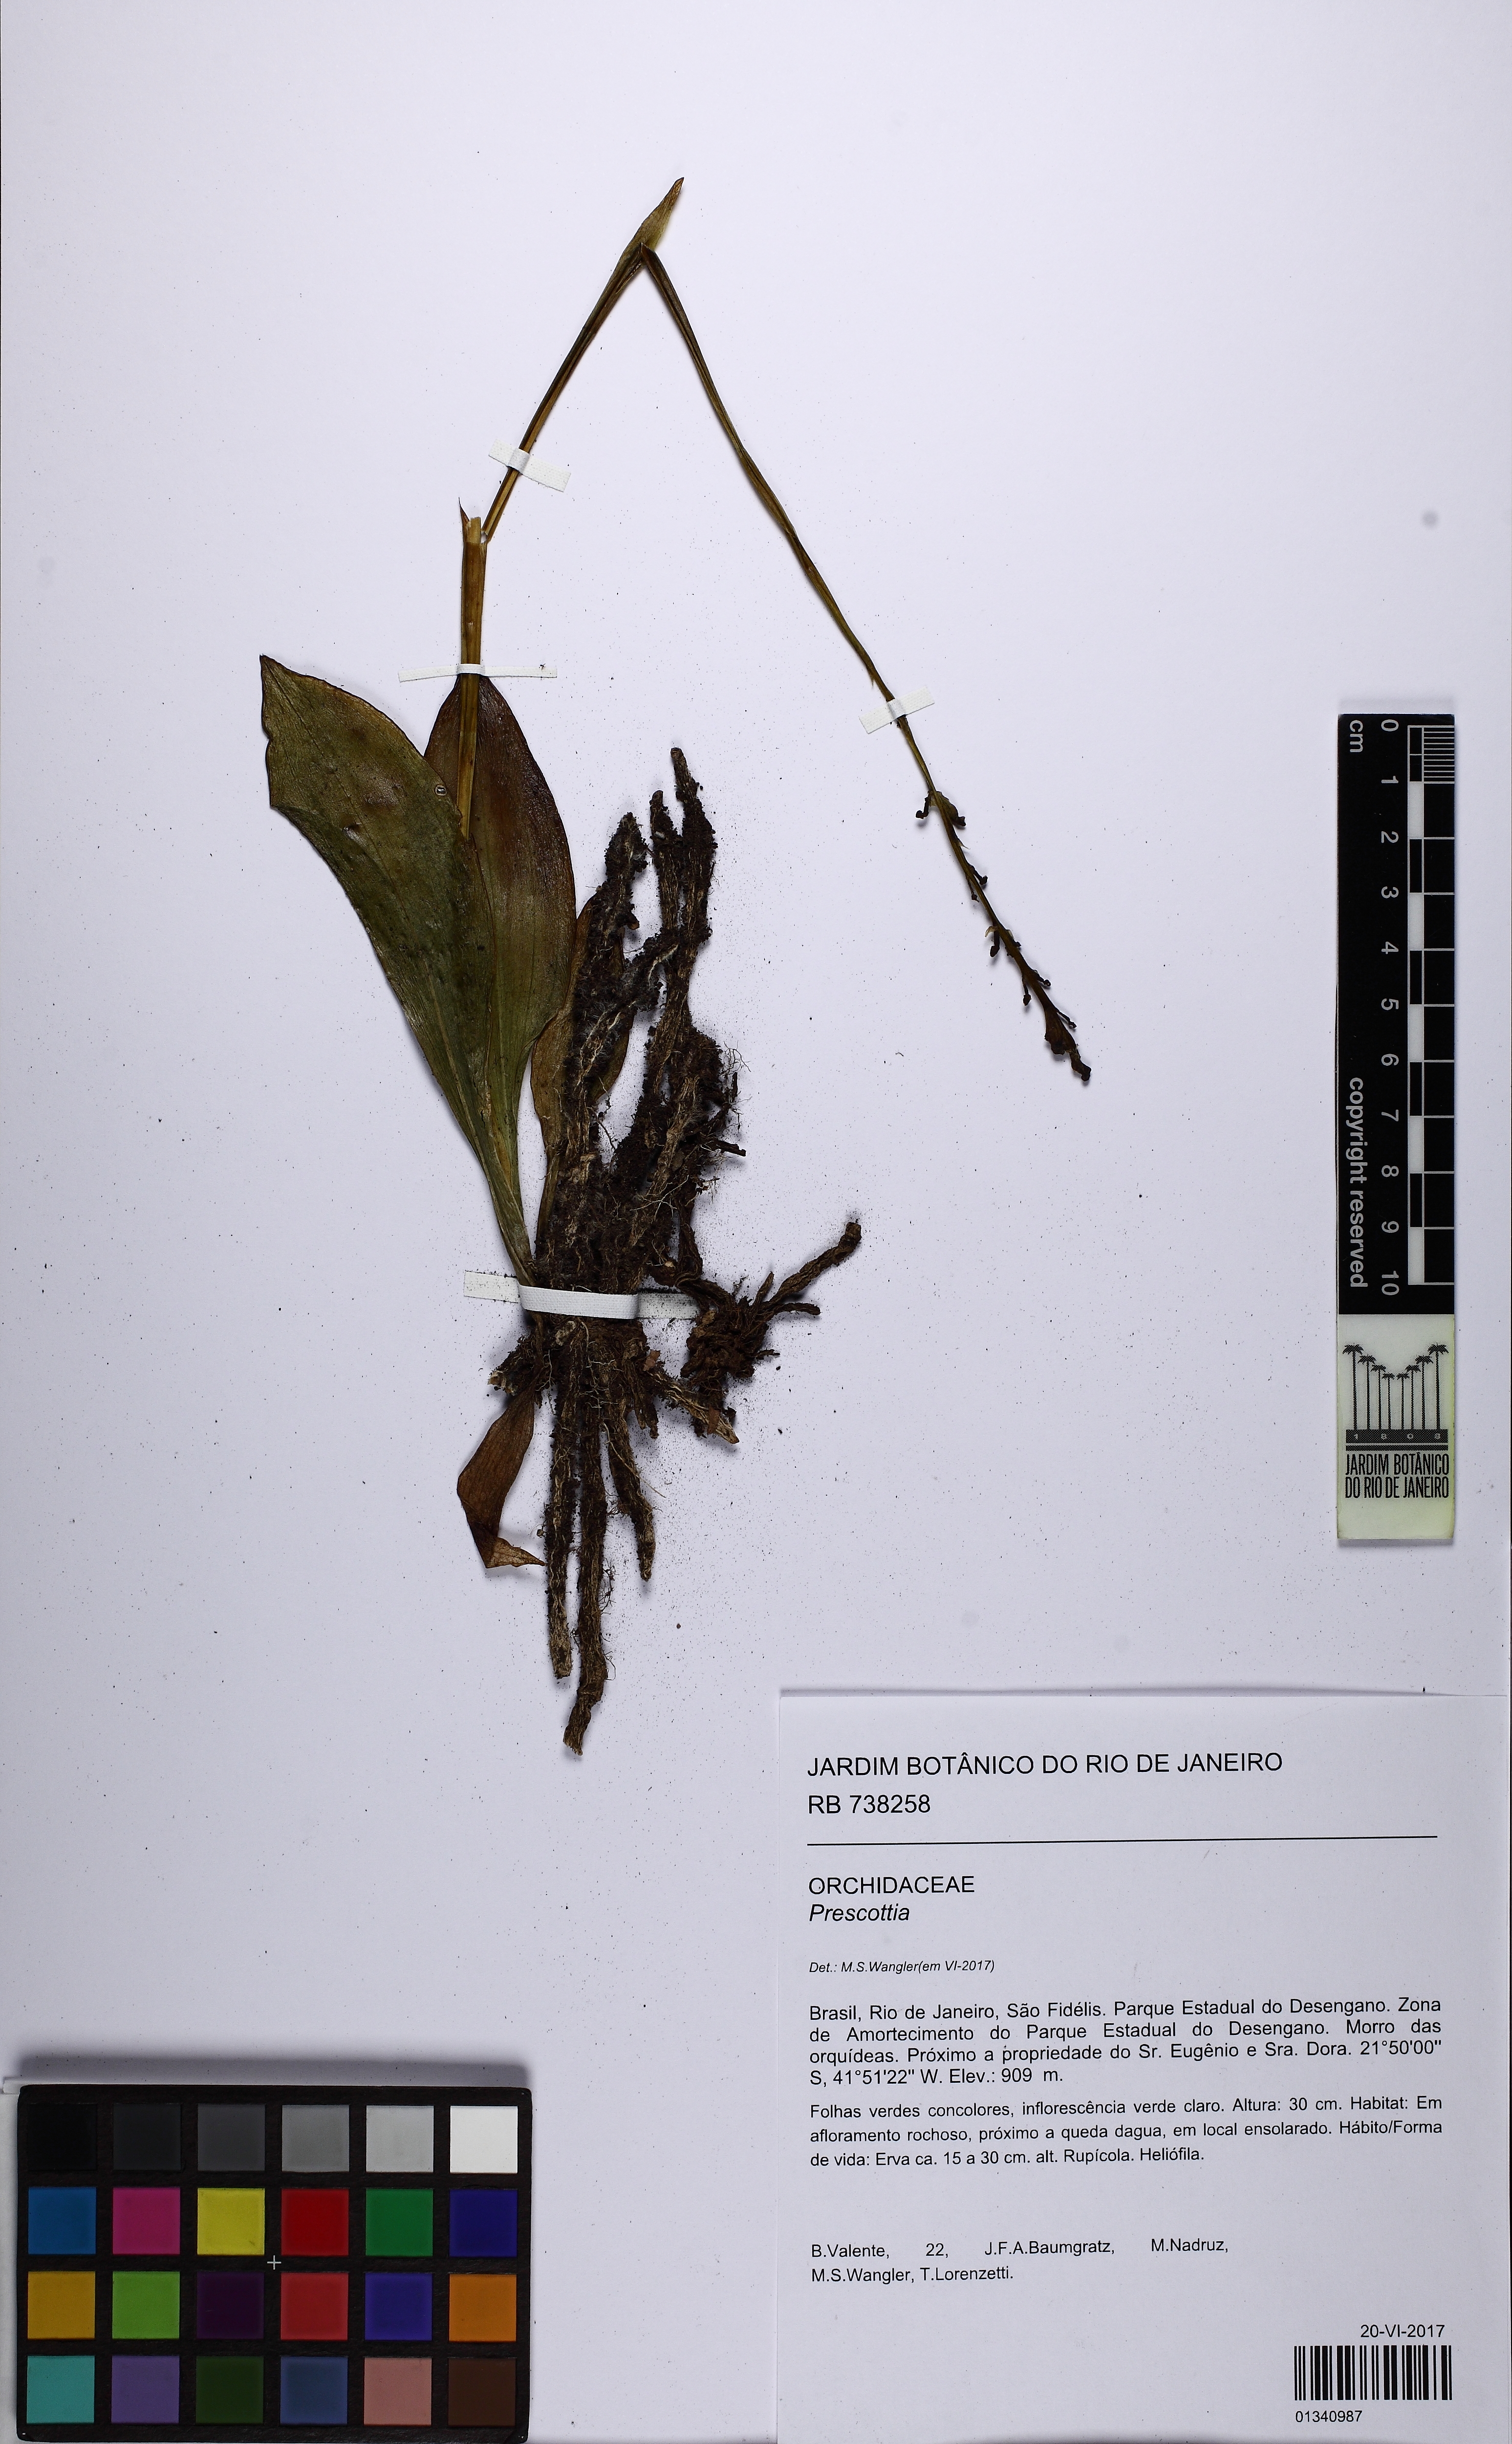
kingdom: Plantae
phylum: Tracheophyta
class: Liliopsida
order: Asparagales
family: Orchidaceae
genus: Prescottia
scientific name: Prescottia
